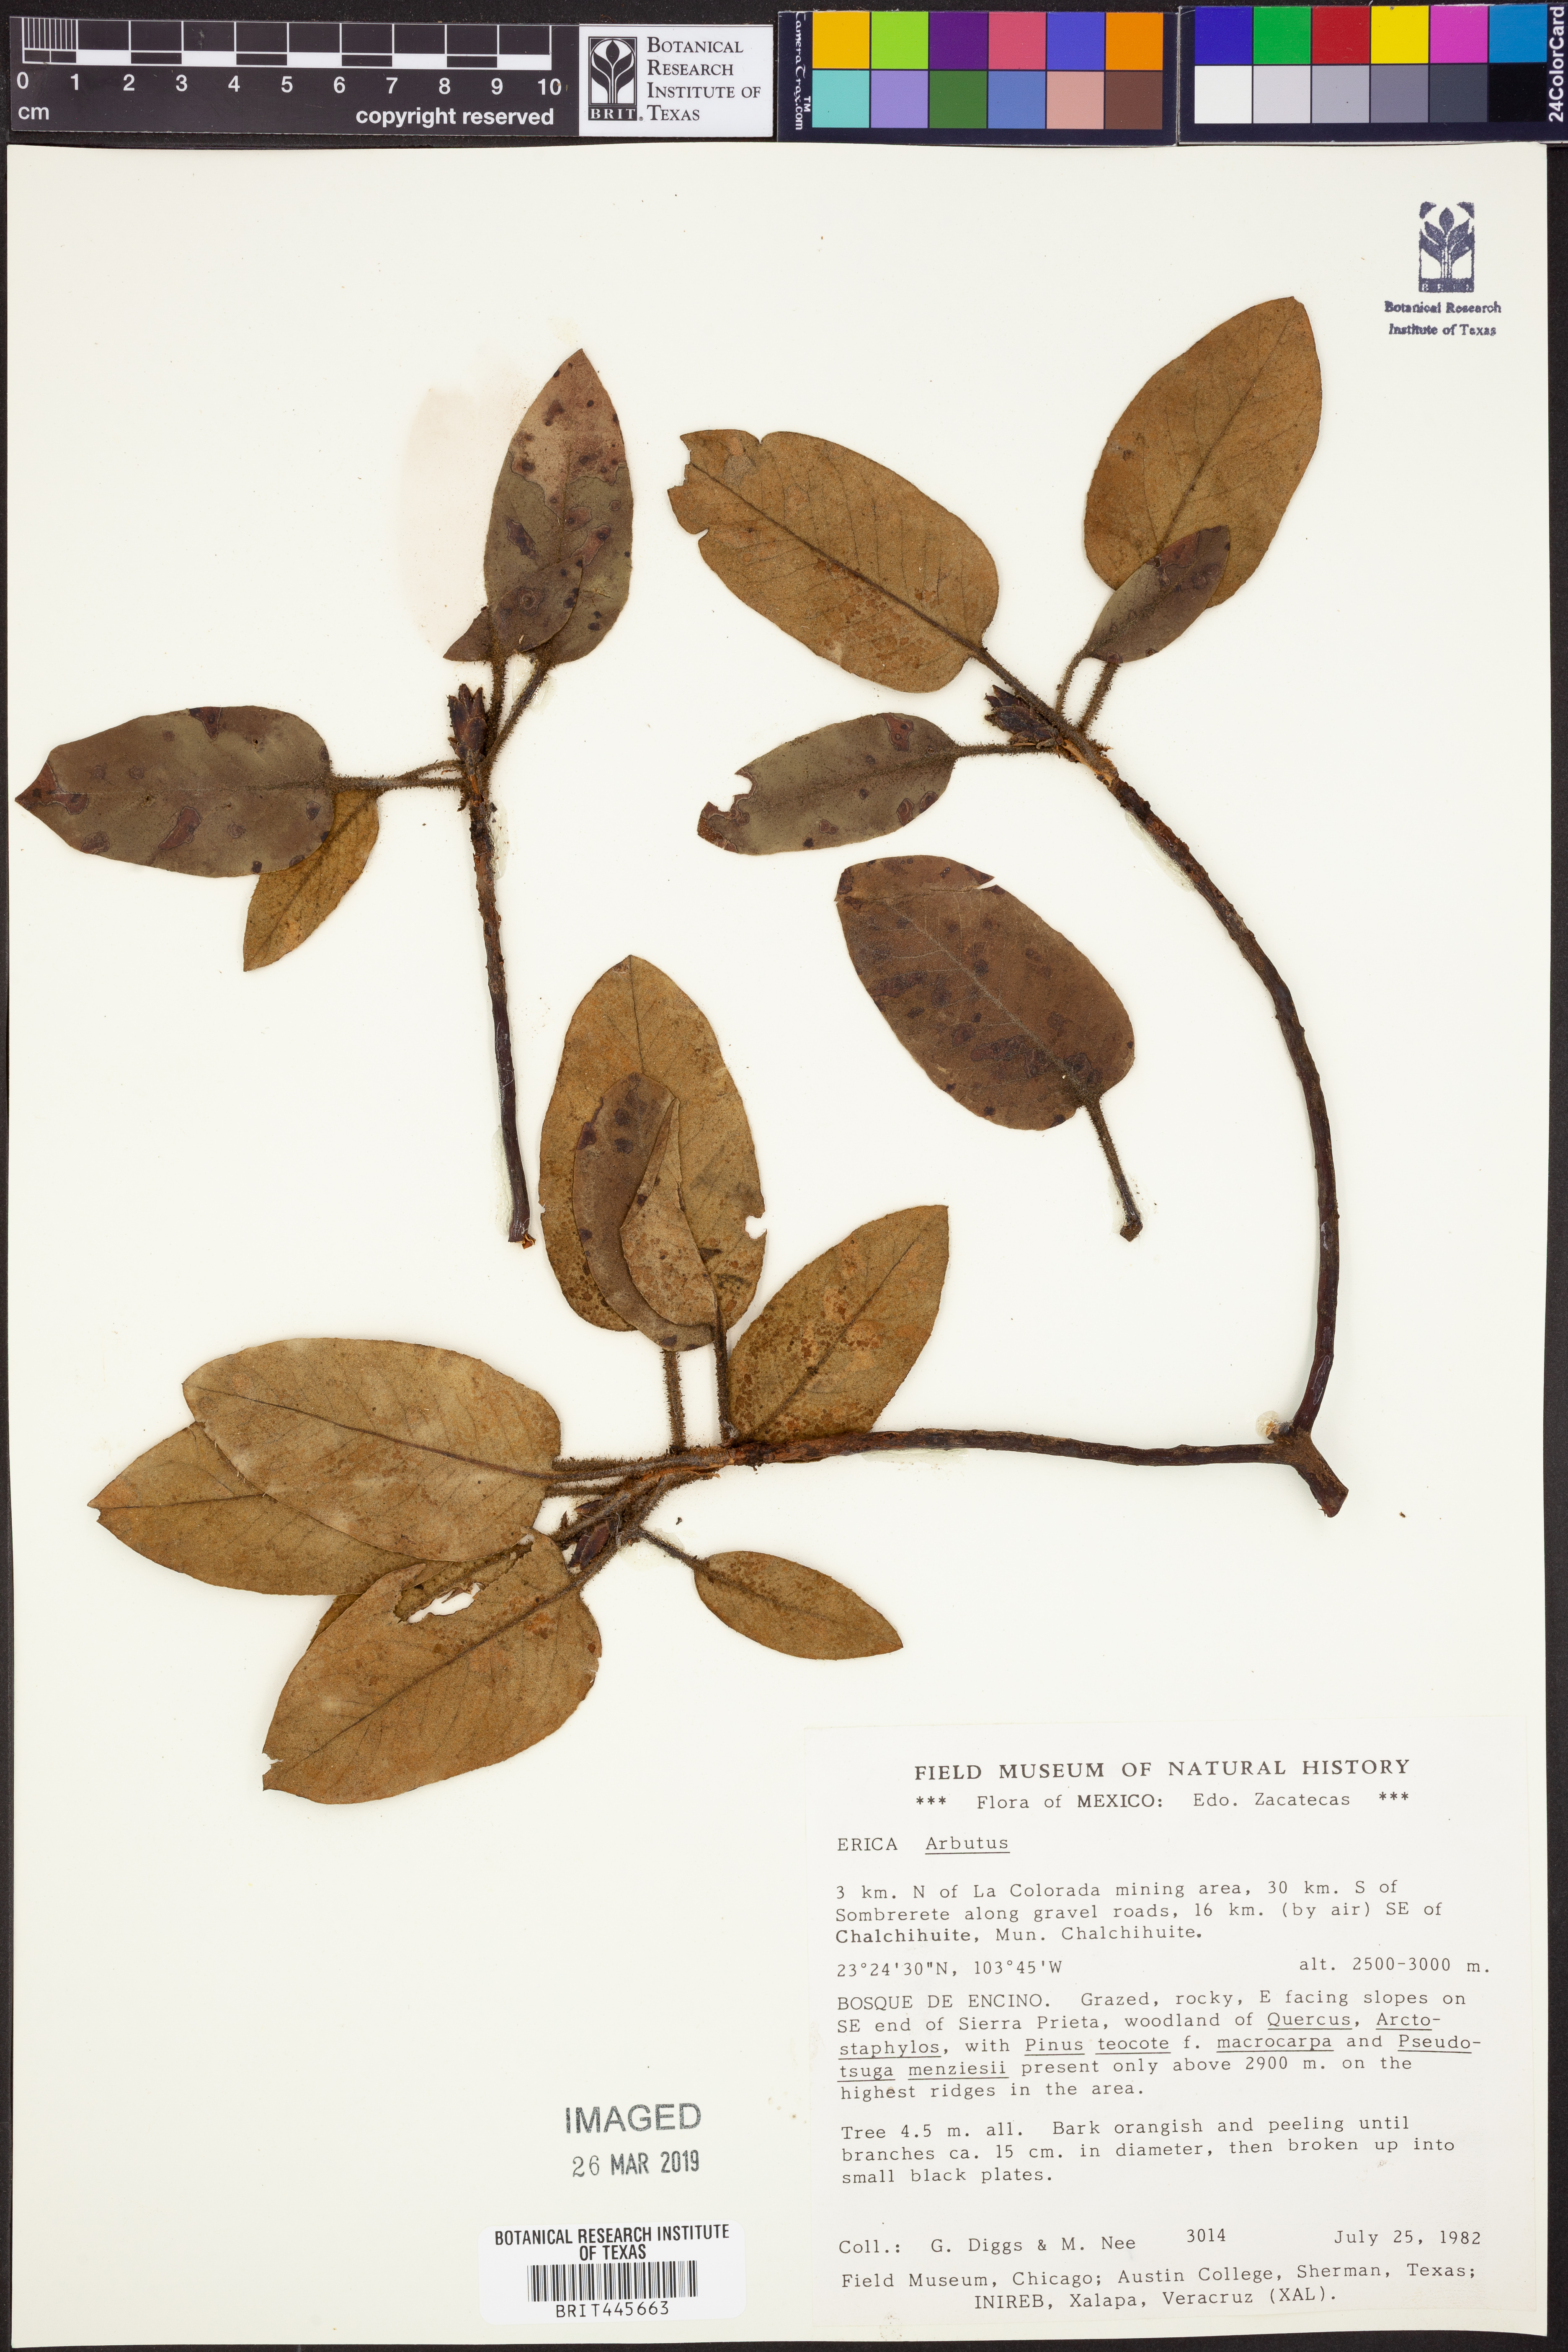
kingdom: Plantae
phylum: Tracheophyta
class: Magnoliopsida
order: Ericales
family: Ericaceae
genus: Arbutus
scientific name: Arbutus
